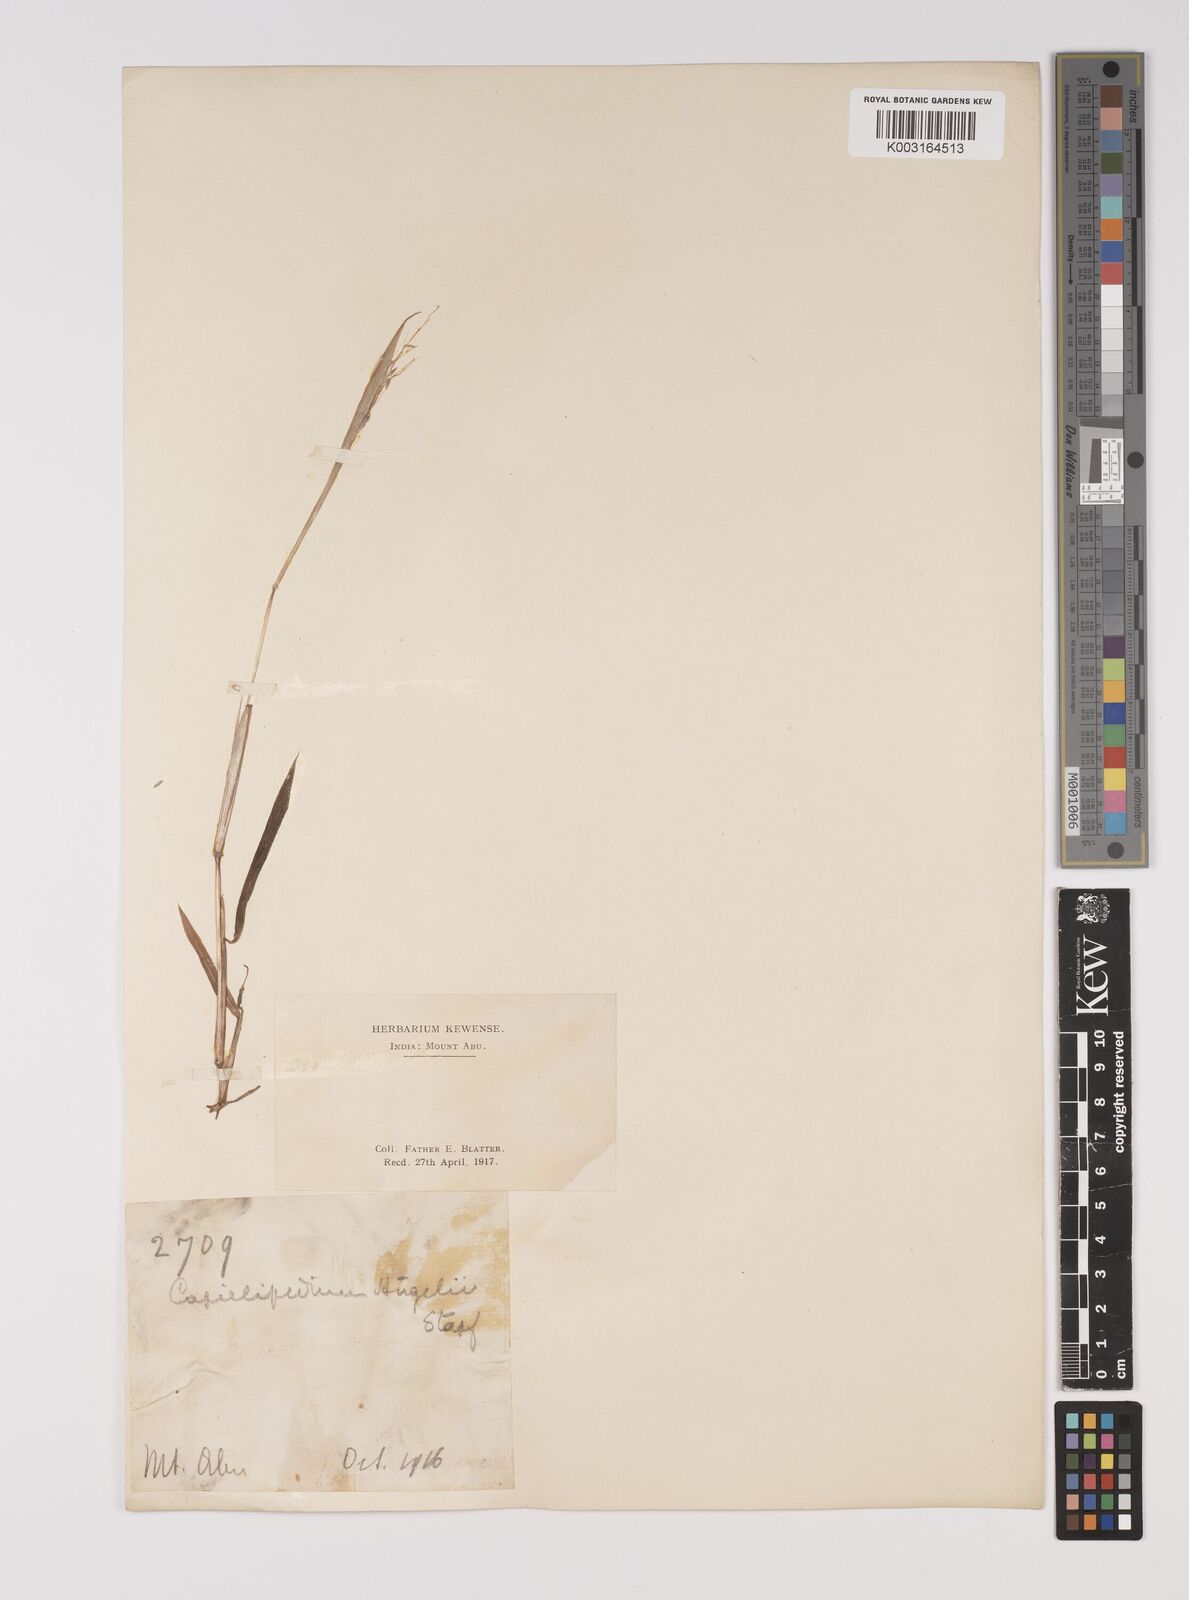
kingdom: Plantae
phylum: Tracheophyta
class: Liliopsida
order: Poales
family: Poaceae
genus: Capillipedium
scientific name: Capillipedium huegelii
